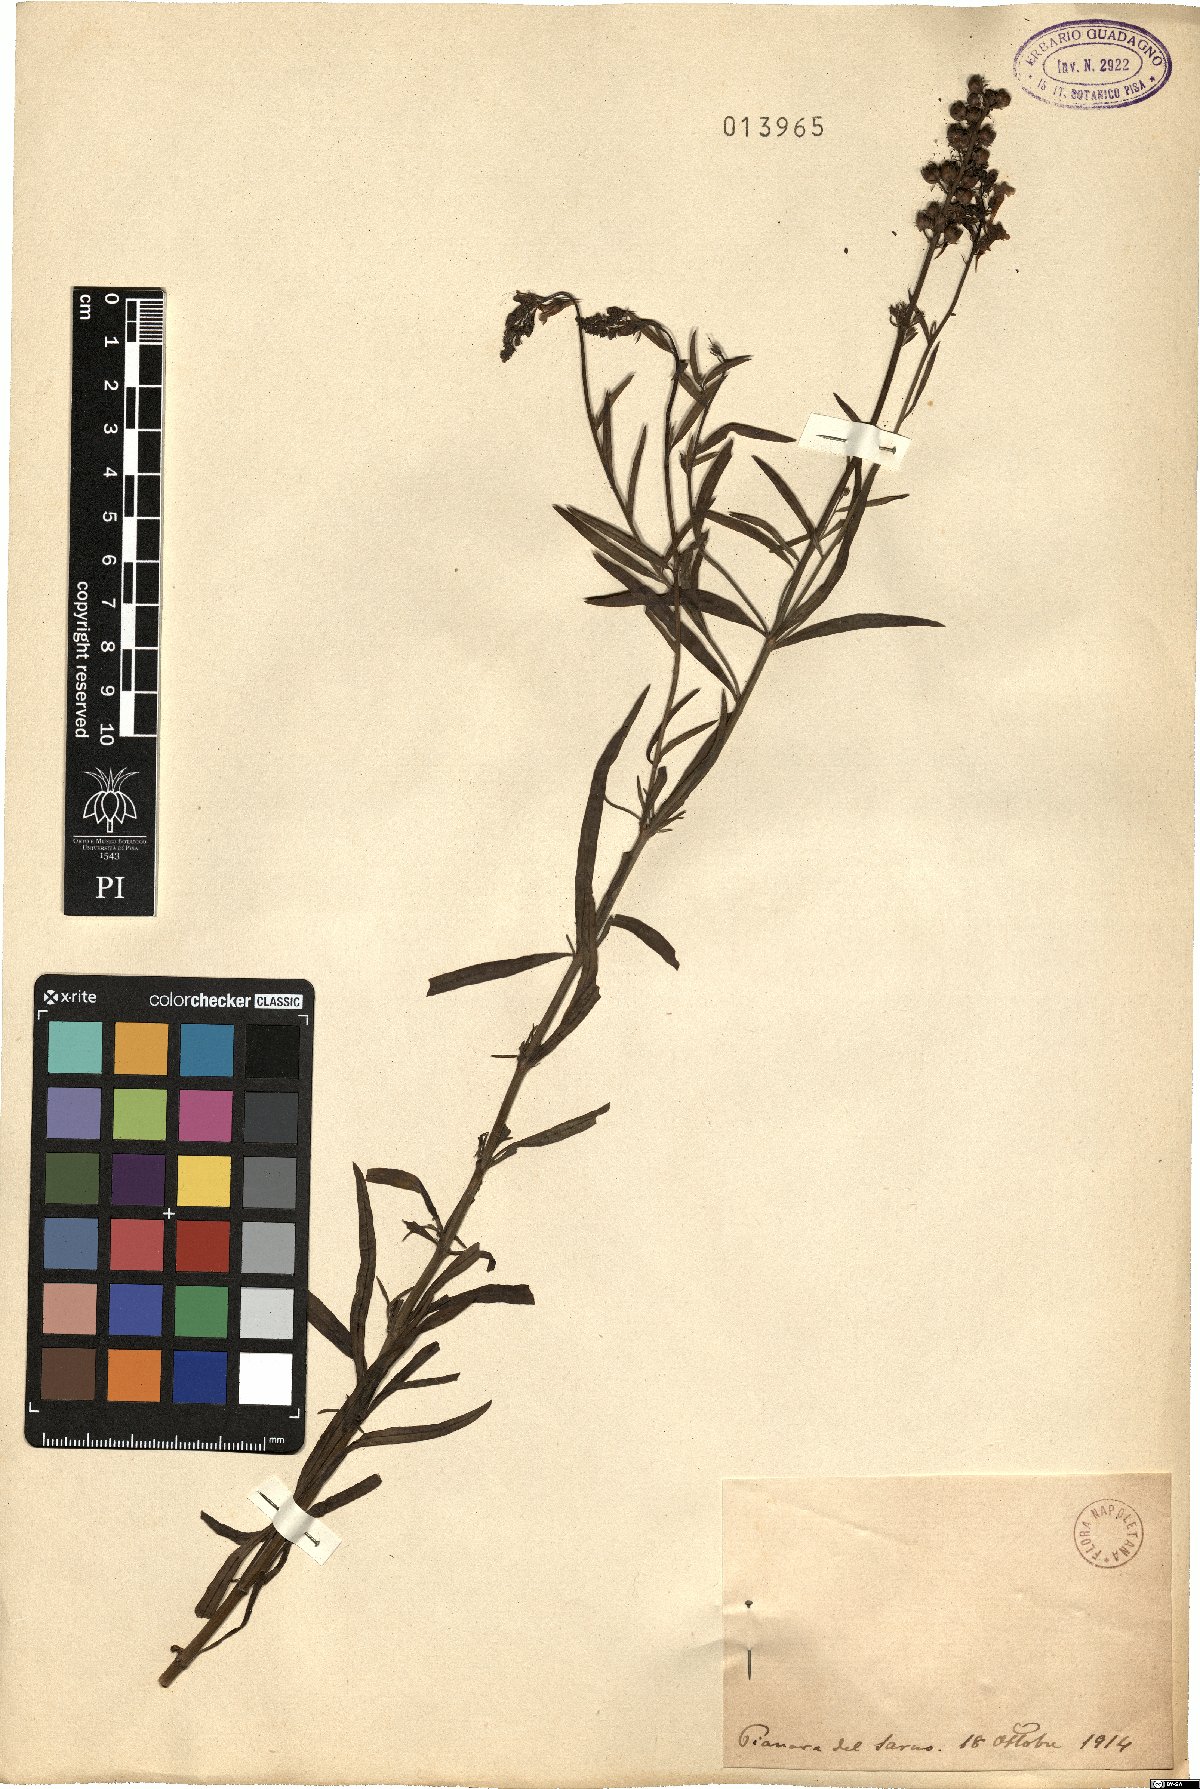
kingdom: Plantae
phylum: Tracheophyta
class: Magnoliopsida
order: Lamiales
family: Plantaginaceae
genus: Linaria
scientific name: Linaria
